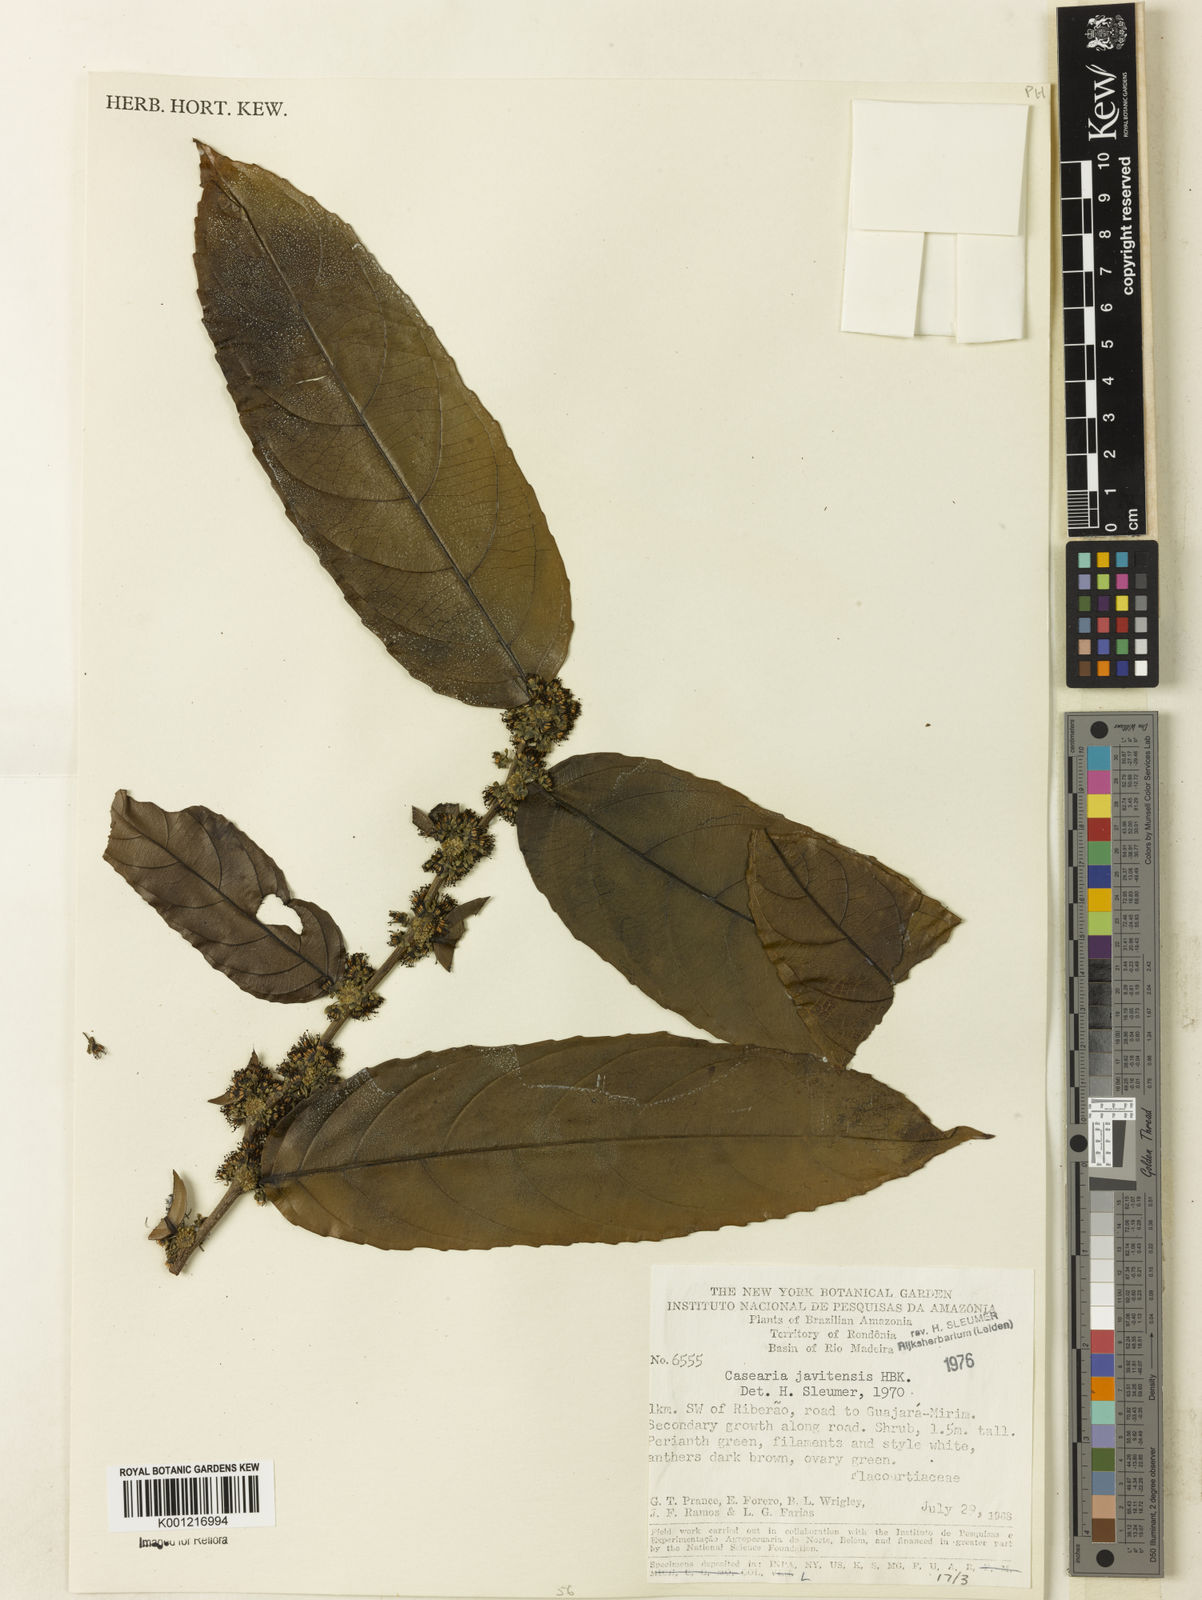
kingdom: Plantae
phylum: Tracheophyta
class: Magnoliopsida
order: Malpighiales
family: Salicaceae
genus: Piparea
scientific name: Piparea multiflora
